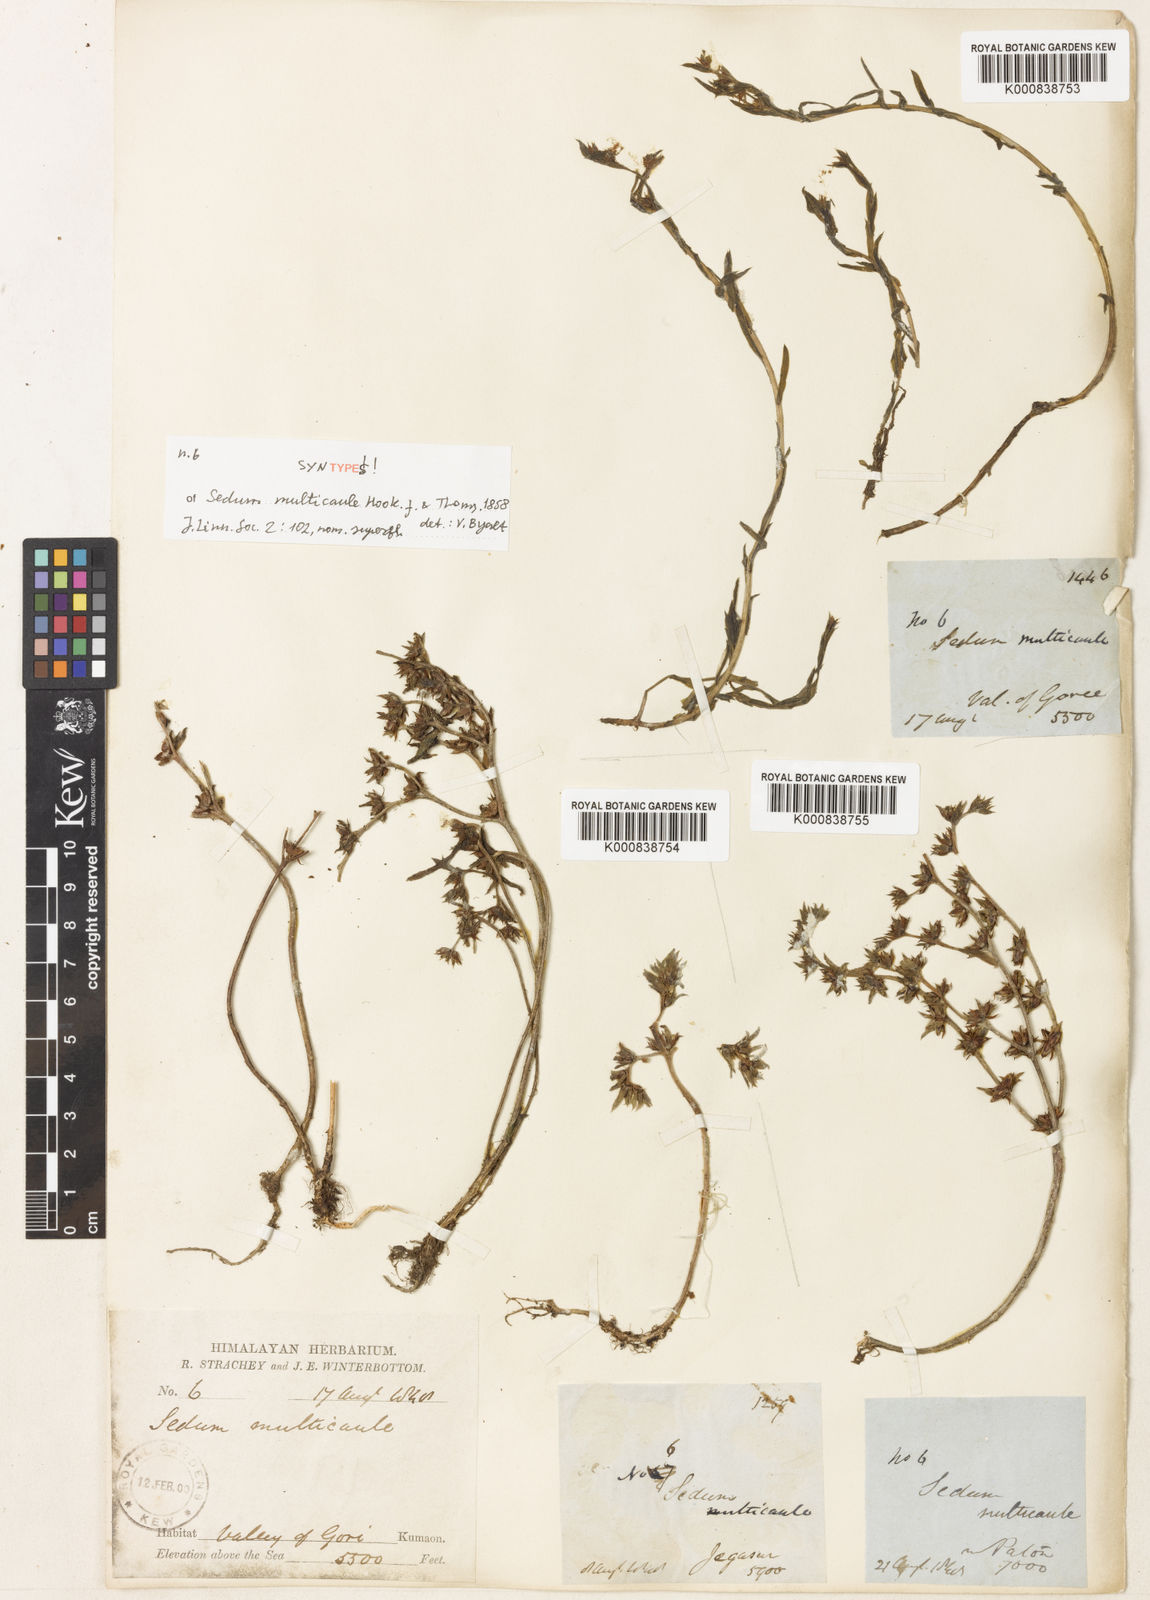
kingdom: Plantae
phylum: Tracheophyta
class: Magnoliopsida
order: Saxifragales
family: Crassulaceae
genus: Sedum
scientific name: Sedum
